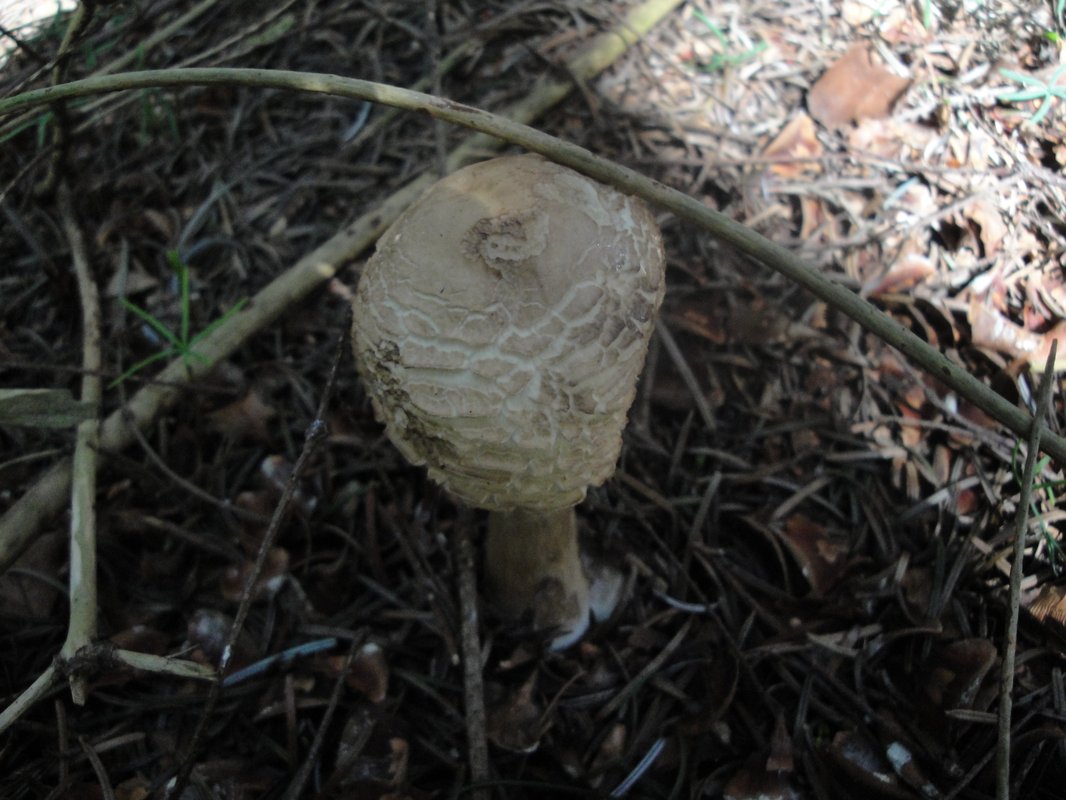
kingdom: Fungi
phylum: Basidiomycota
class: Agaricomycetes
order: Agaricales
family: Agaricaceae
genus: Chlorophyllum
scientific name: Chlorophyllum olivieri
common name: almindelig rabarberhat
